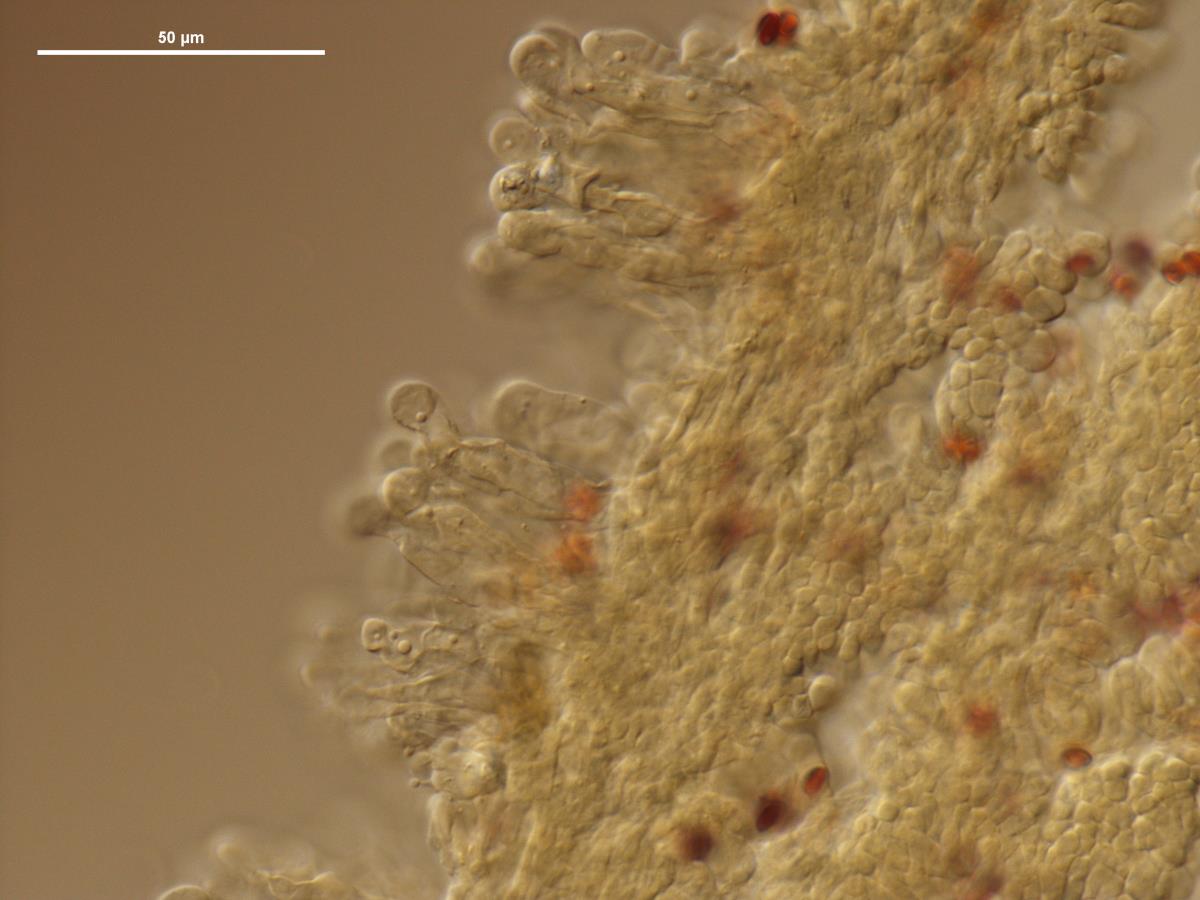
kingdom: Fungi
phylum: Basidiomycota
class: Agaricomycetes
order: Agaricales
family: Agaricaceae
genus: Leucoagaricus
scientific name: Leucoagaricus
